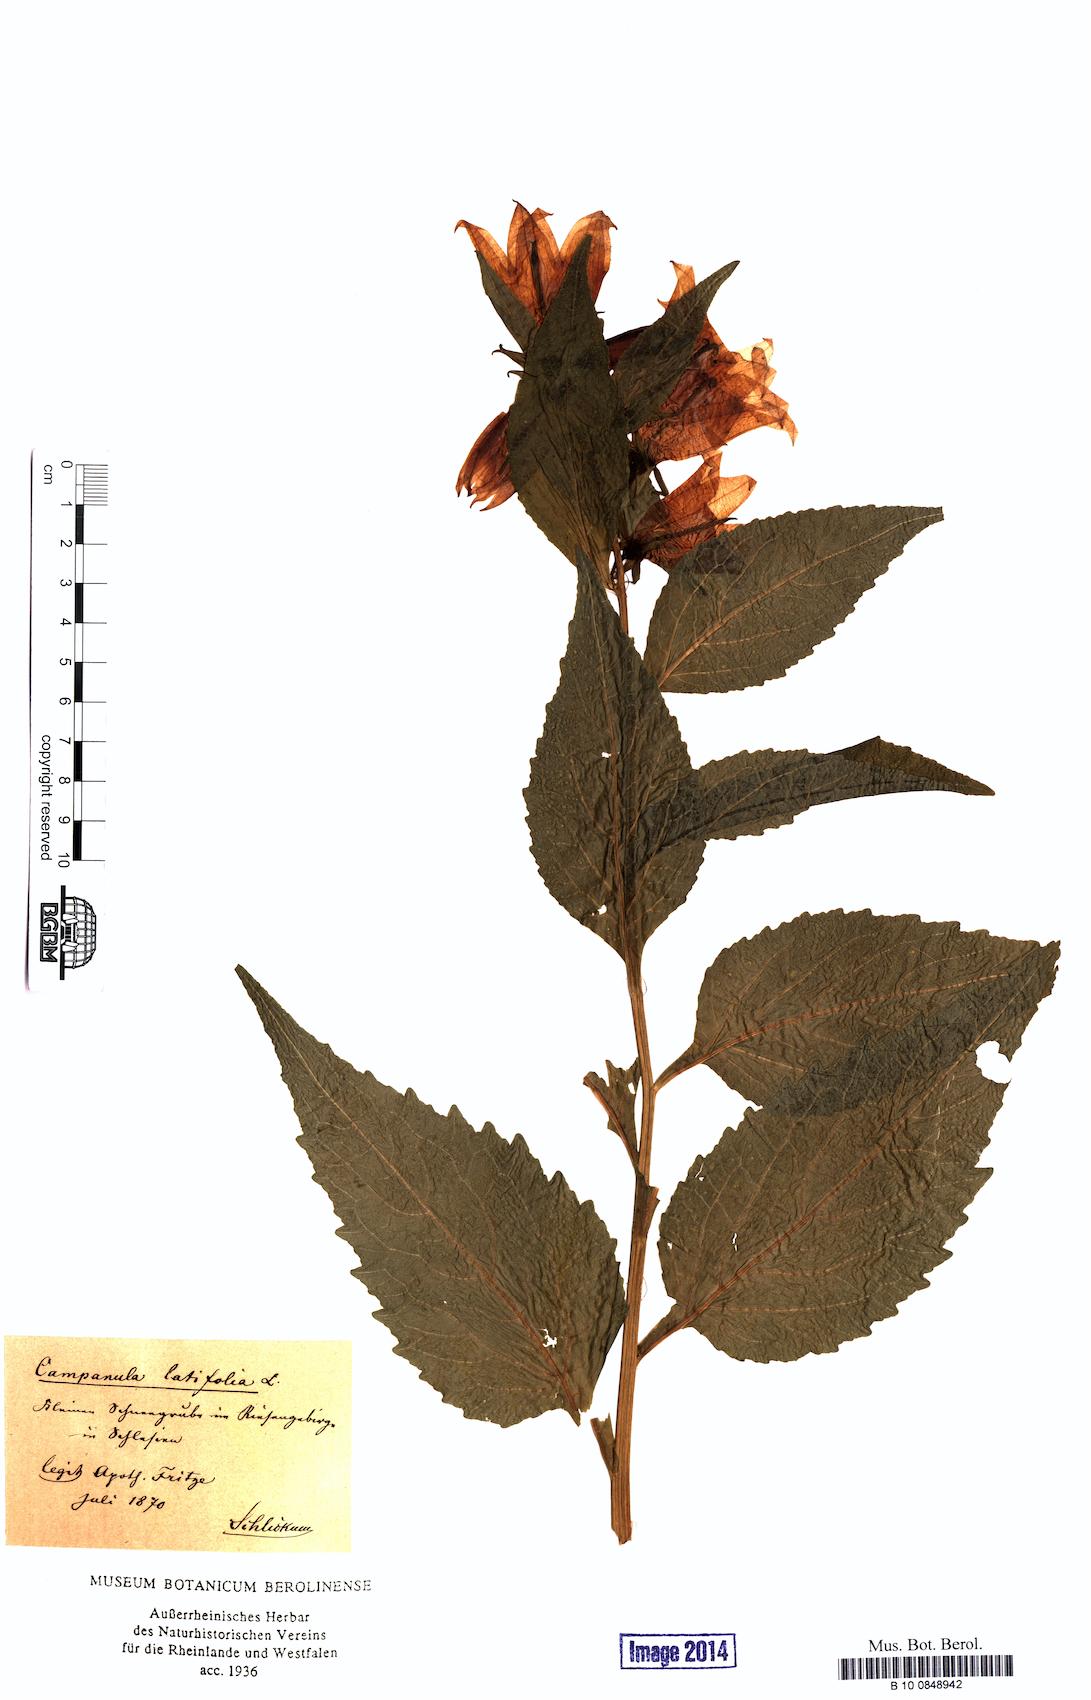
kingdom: Plantae
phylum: Tracheophyta
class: Magnoliopsida
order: Asterales
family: Campanulaceae
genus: Campanula
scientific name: Campanula latifolia
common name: Giant bellflower
